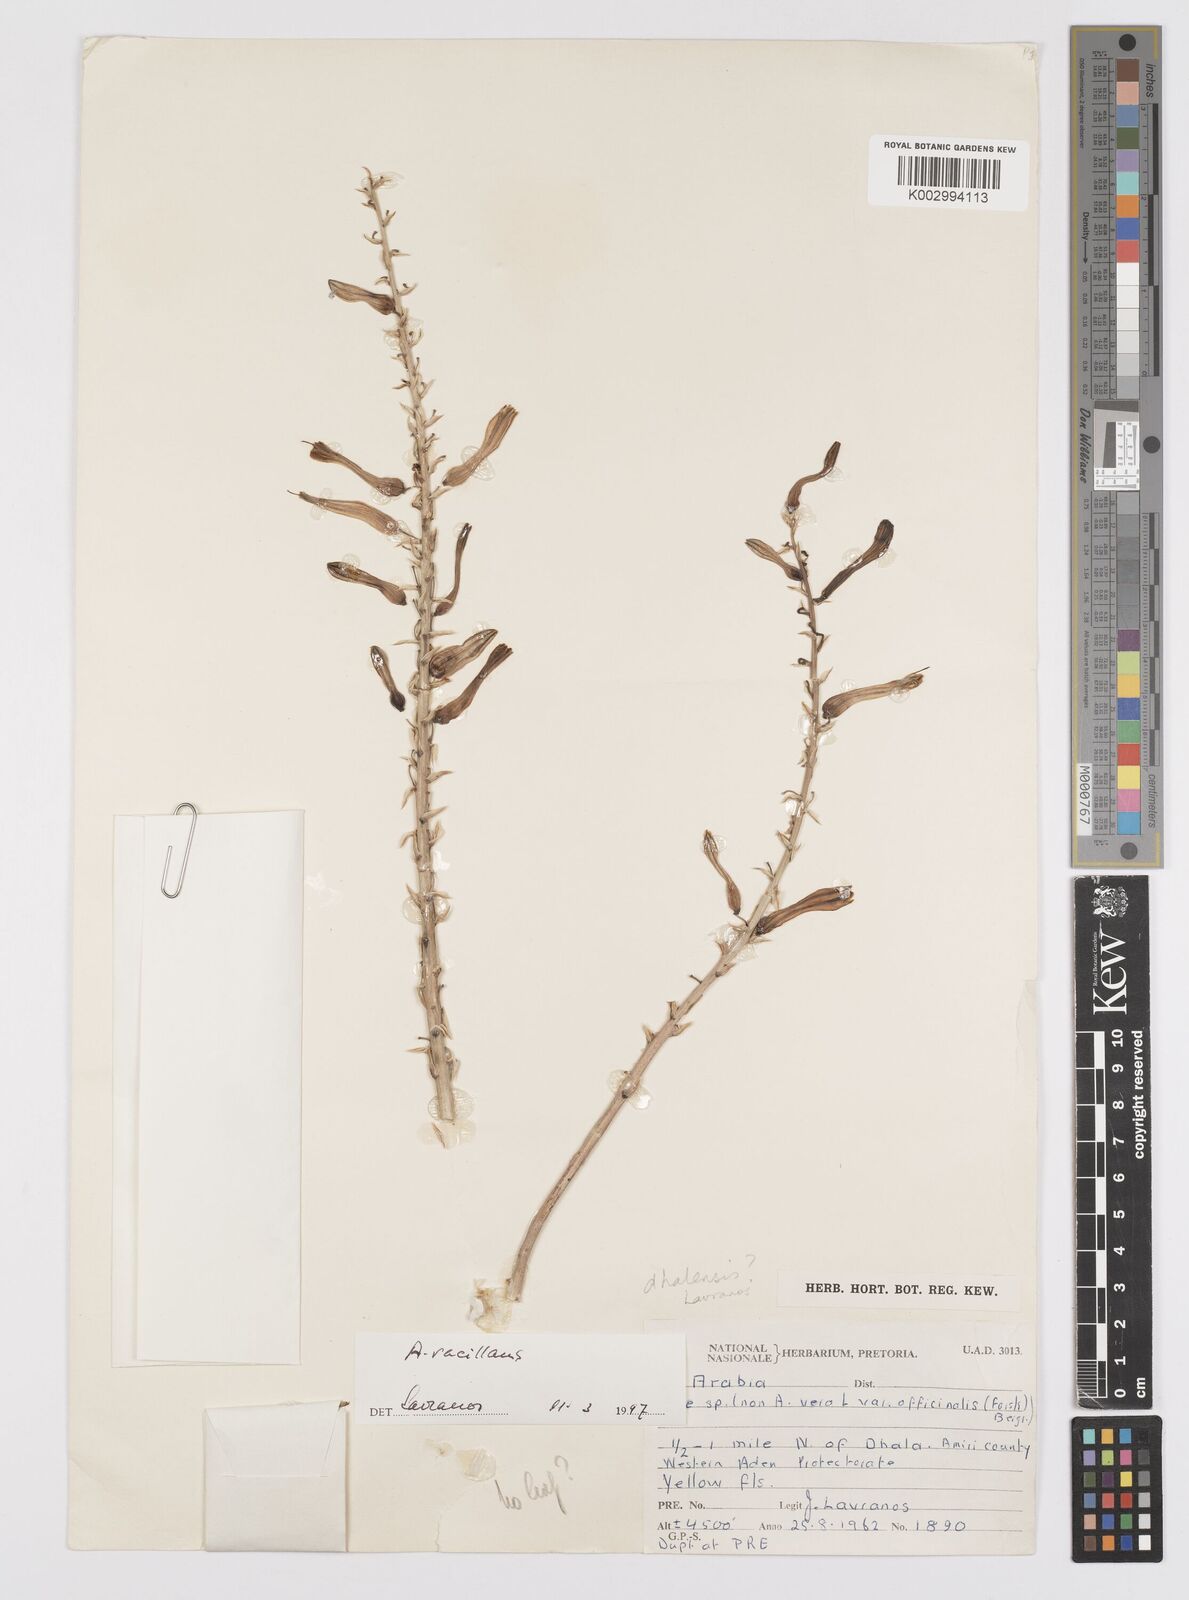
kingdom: Plantae
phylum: Tracheophyta
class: Liliopsida
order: Asparagales
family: Asphodelaceae
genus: Aloe
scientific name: Aloe vacillans
